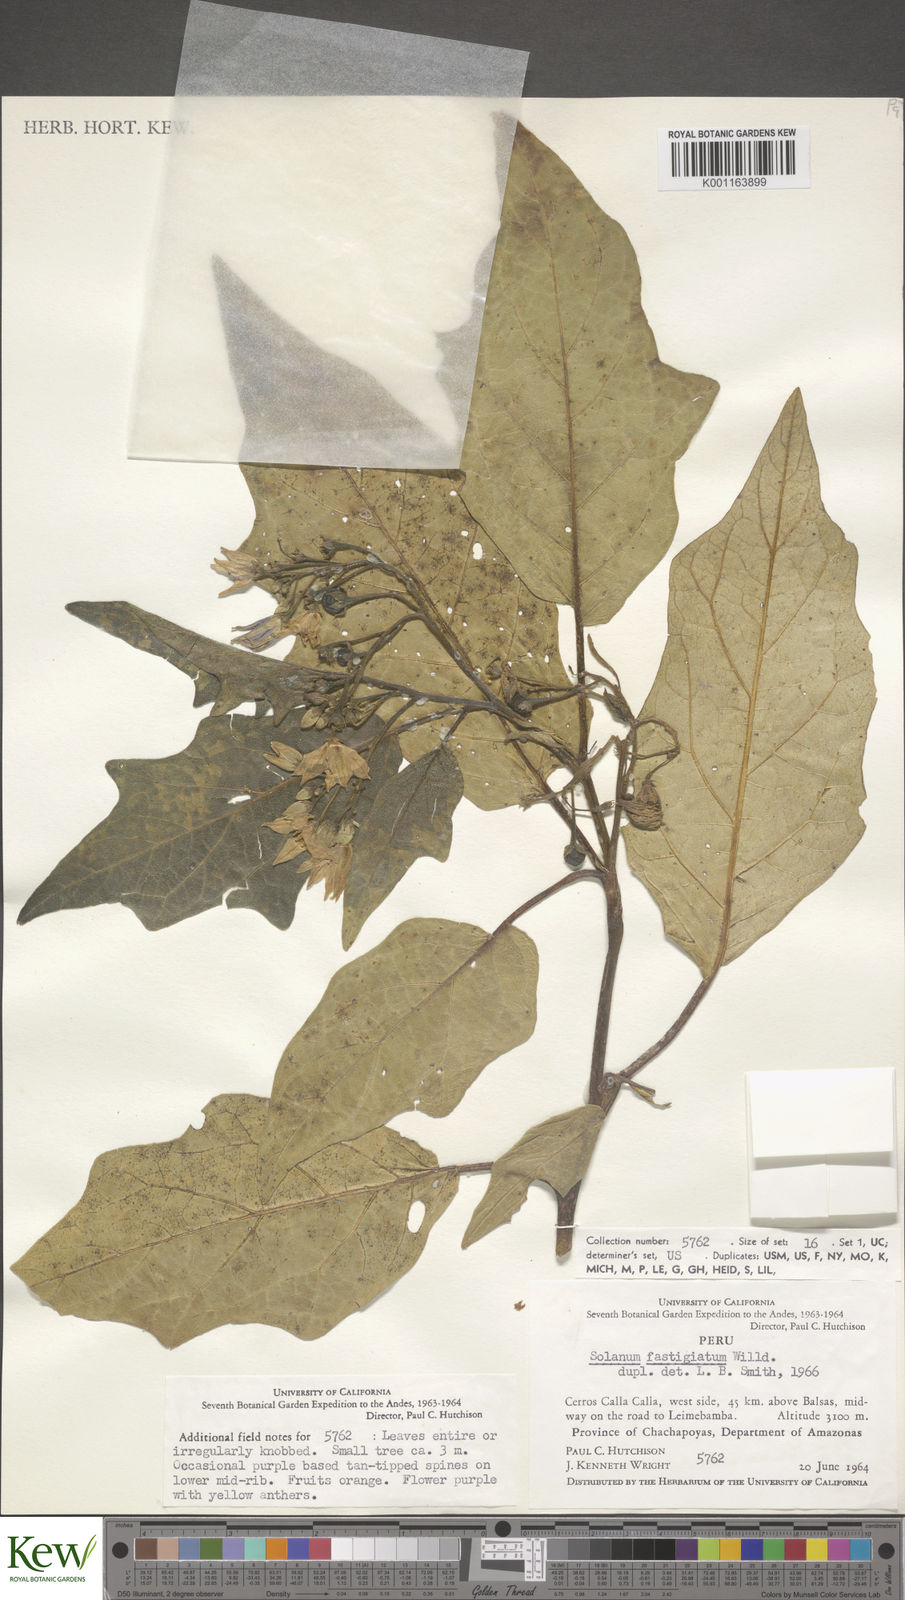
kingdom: Plantae
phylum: Tracheophyta
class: Magnoliopsida
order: Solanales
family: Solanaceae
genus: Solanum
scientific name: Solanum bonariense
